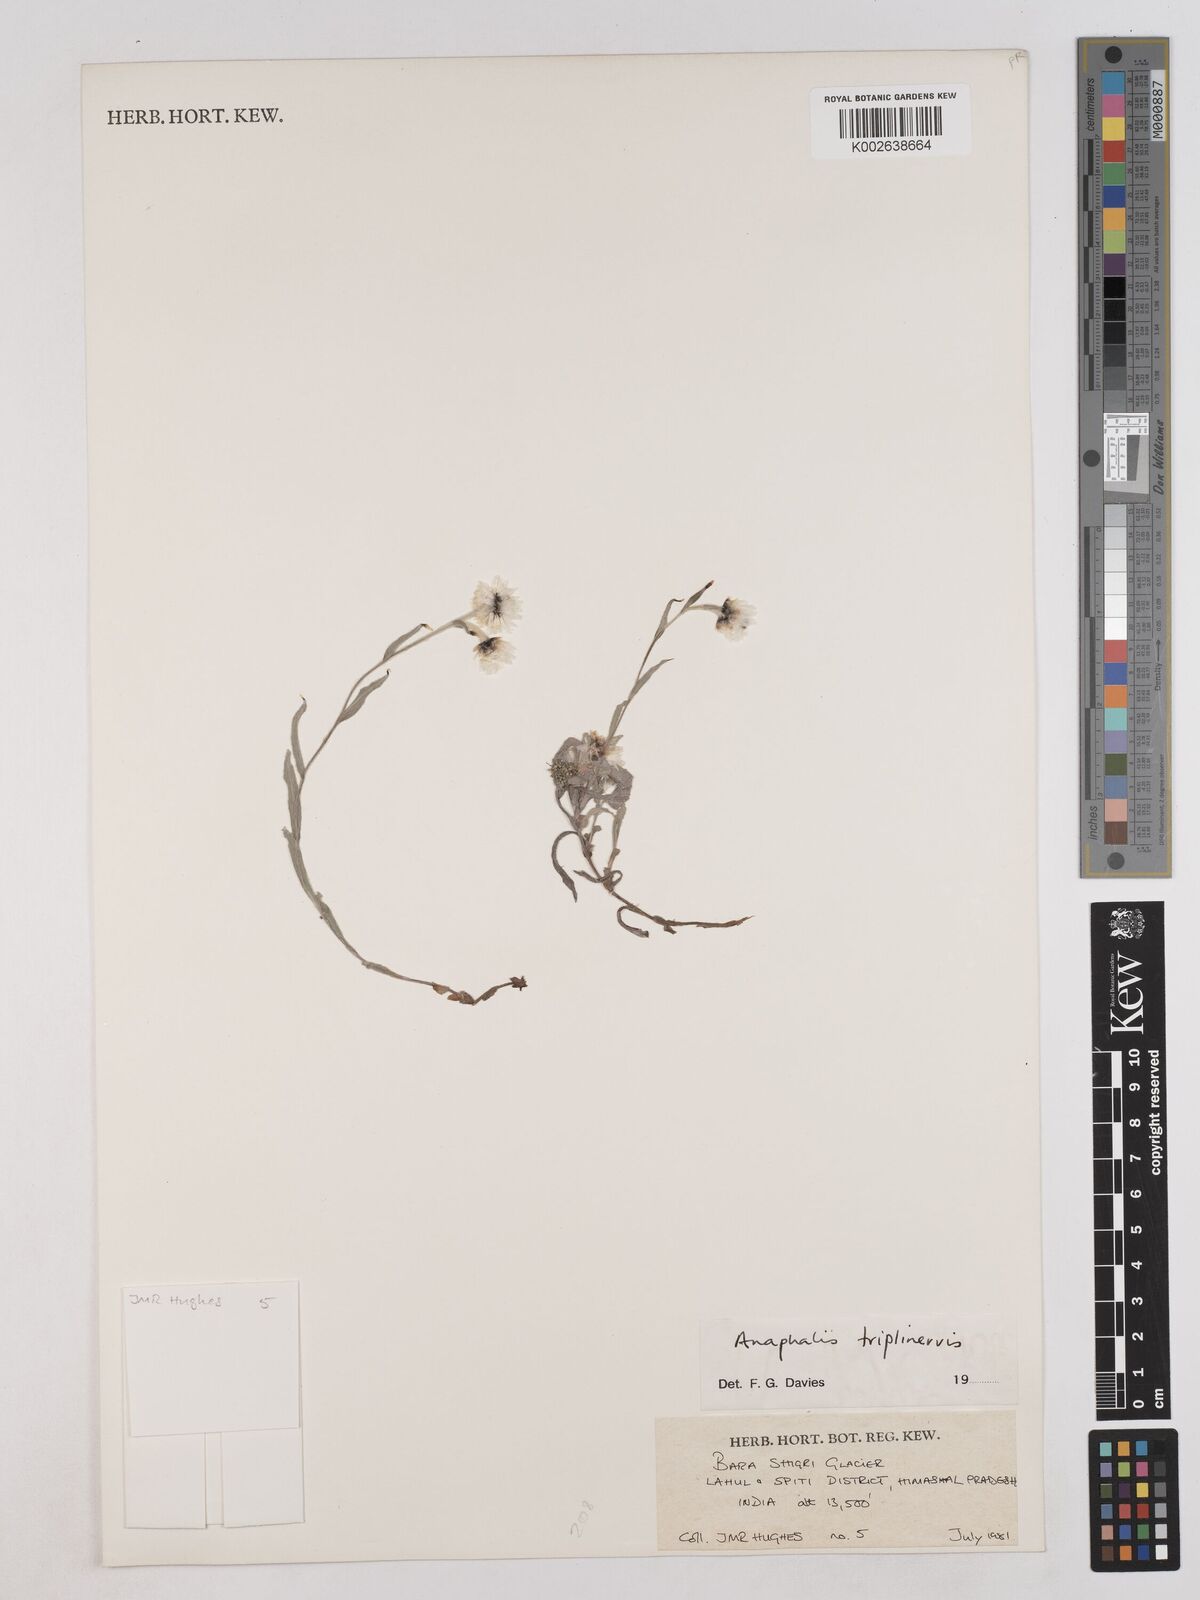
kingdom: Plantae
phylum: Tracheophyta
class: Magnoliopsida
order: Asterales
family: Asteraceae
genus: Anaphalioides
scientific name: Anaphalioides trinervis
